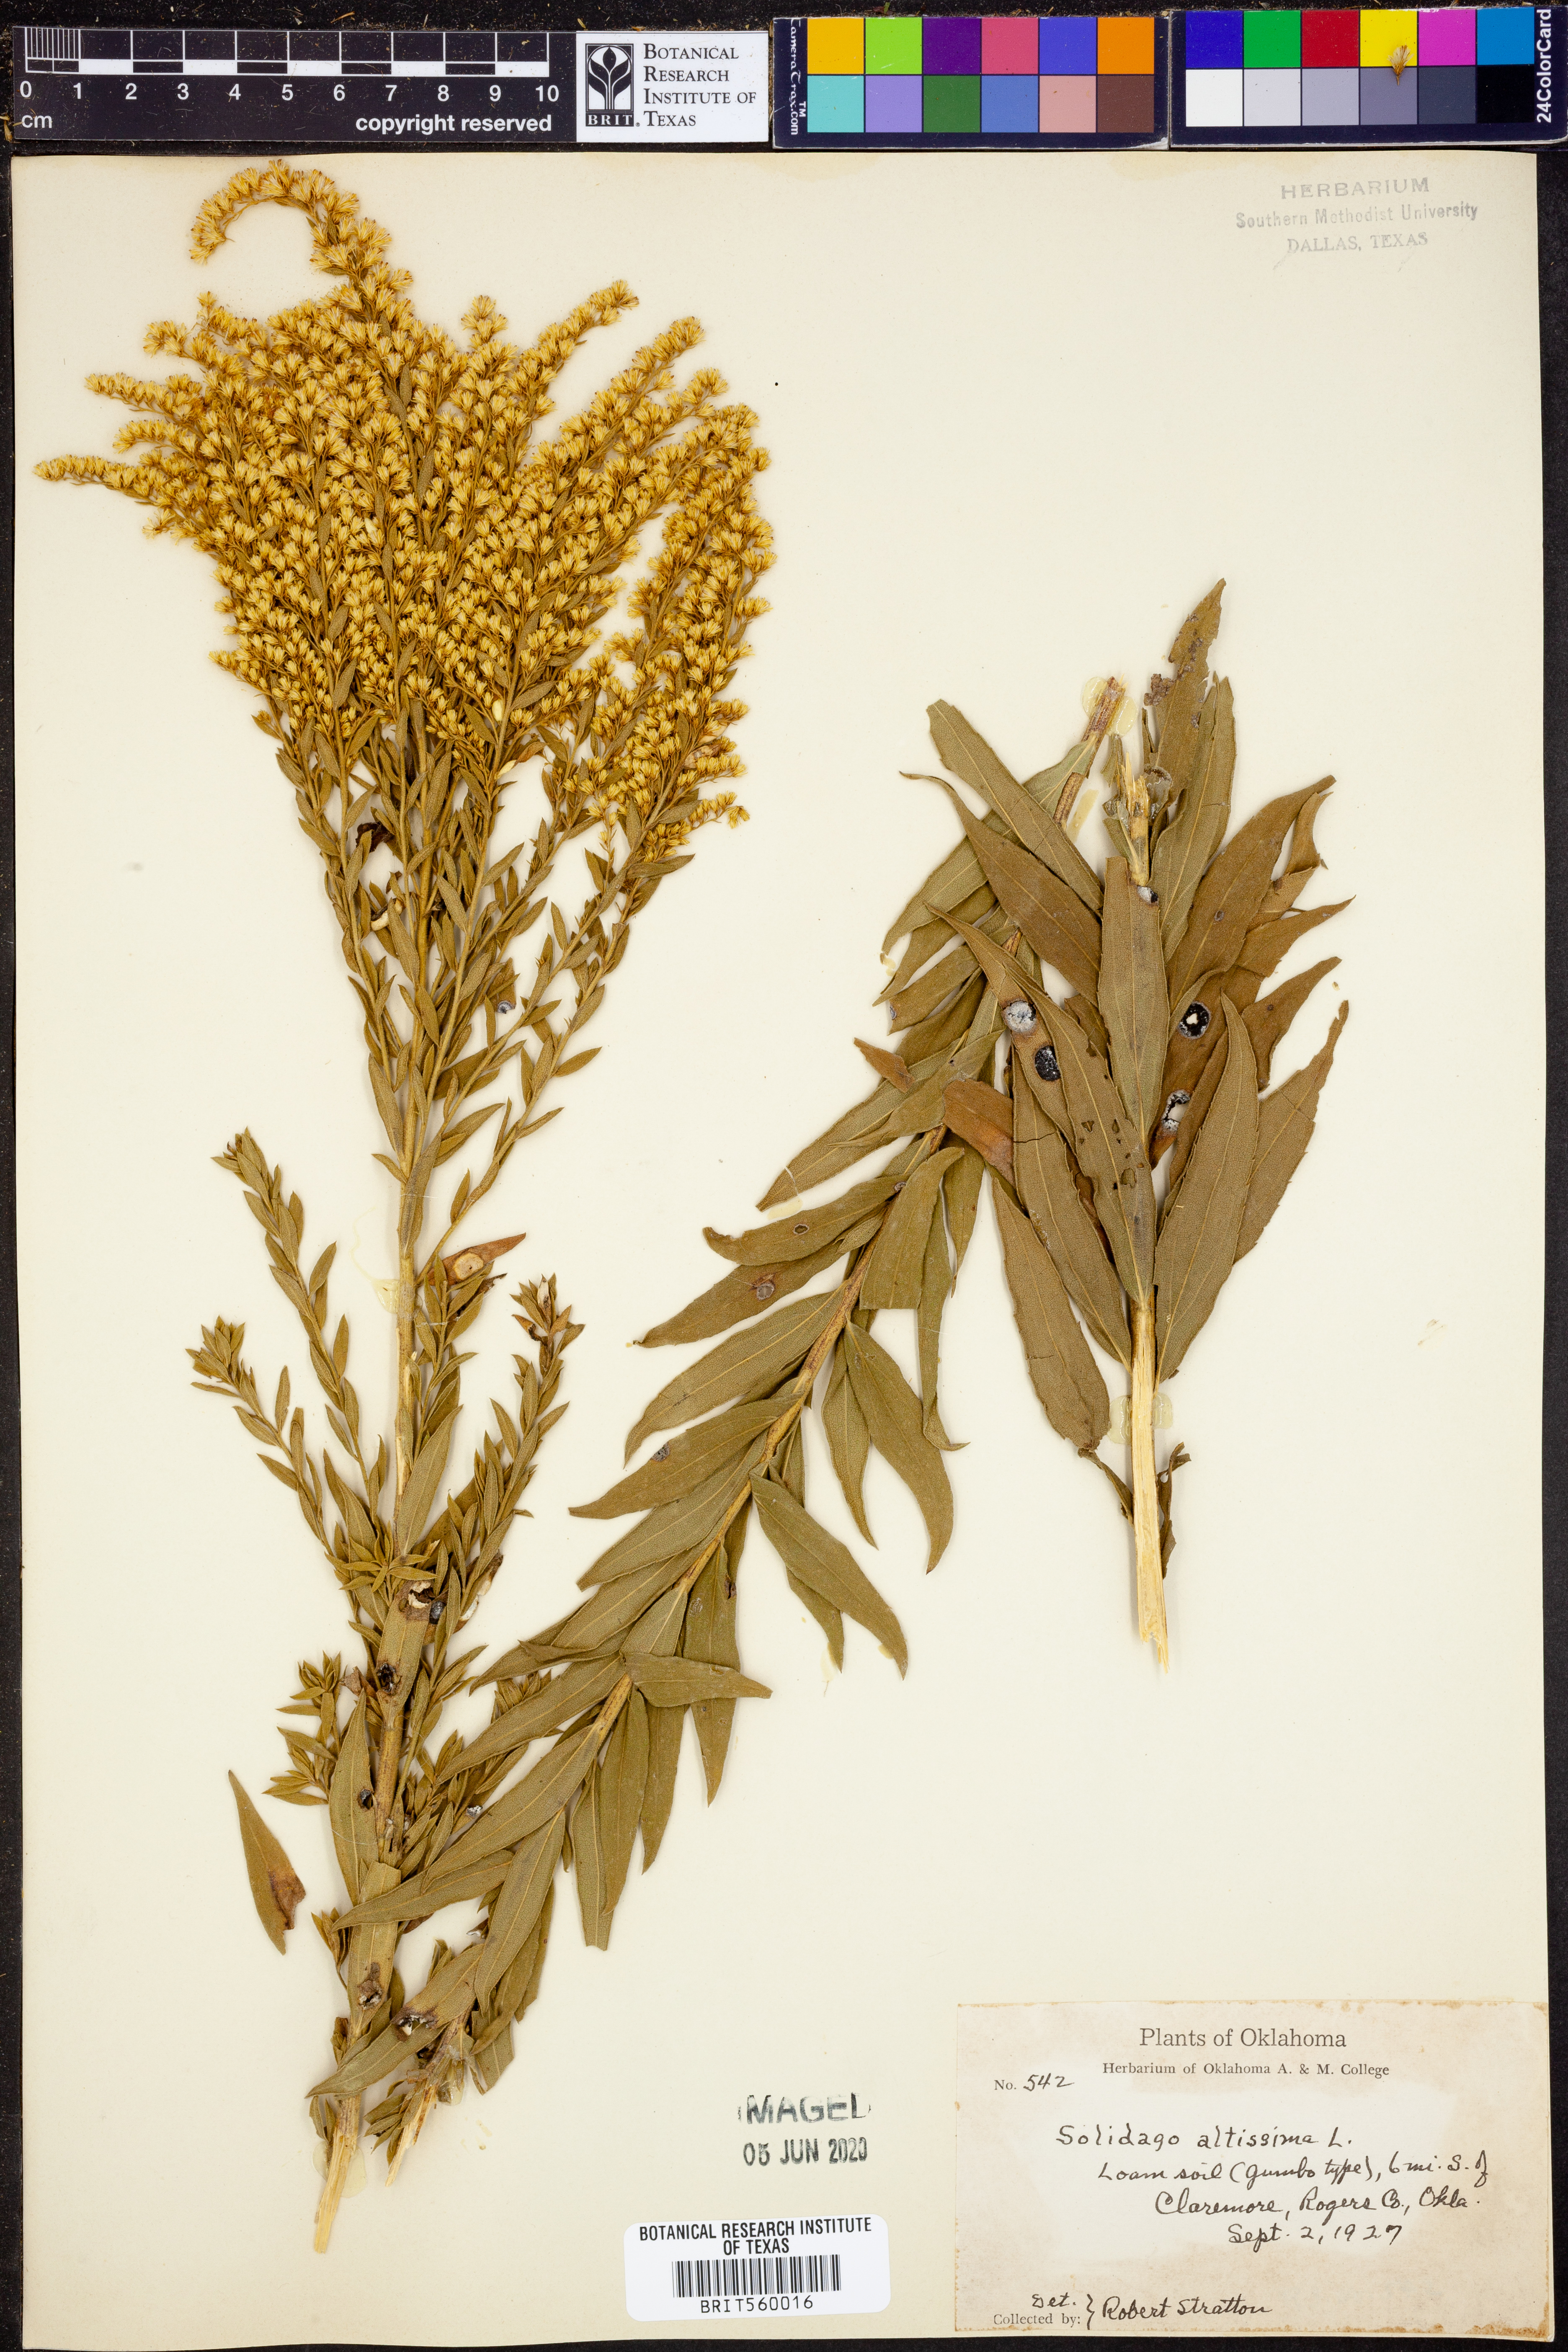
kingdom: Plantae
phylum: Tracheophyta
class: Magnoliopsida
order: Asterales
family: Asteraceae
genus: Solidago
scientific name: Solidago altissima
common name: Late goldenrod
